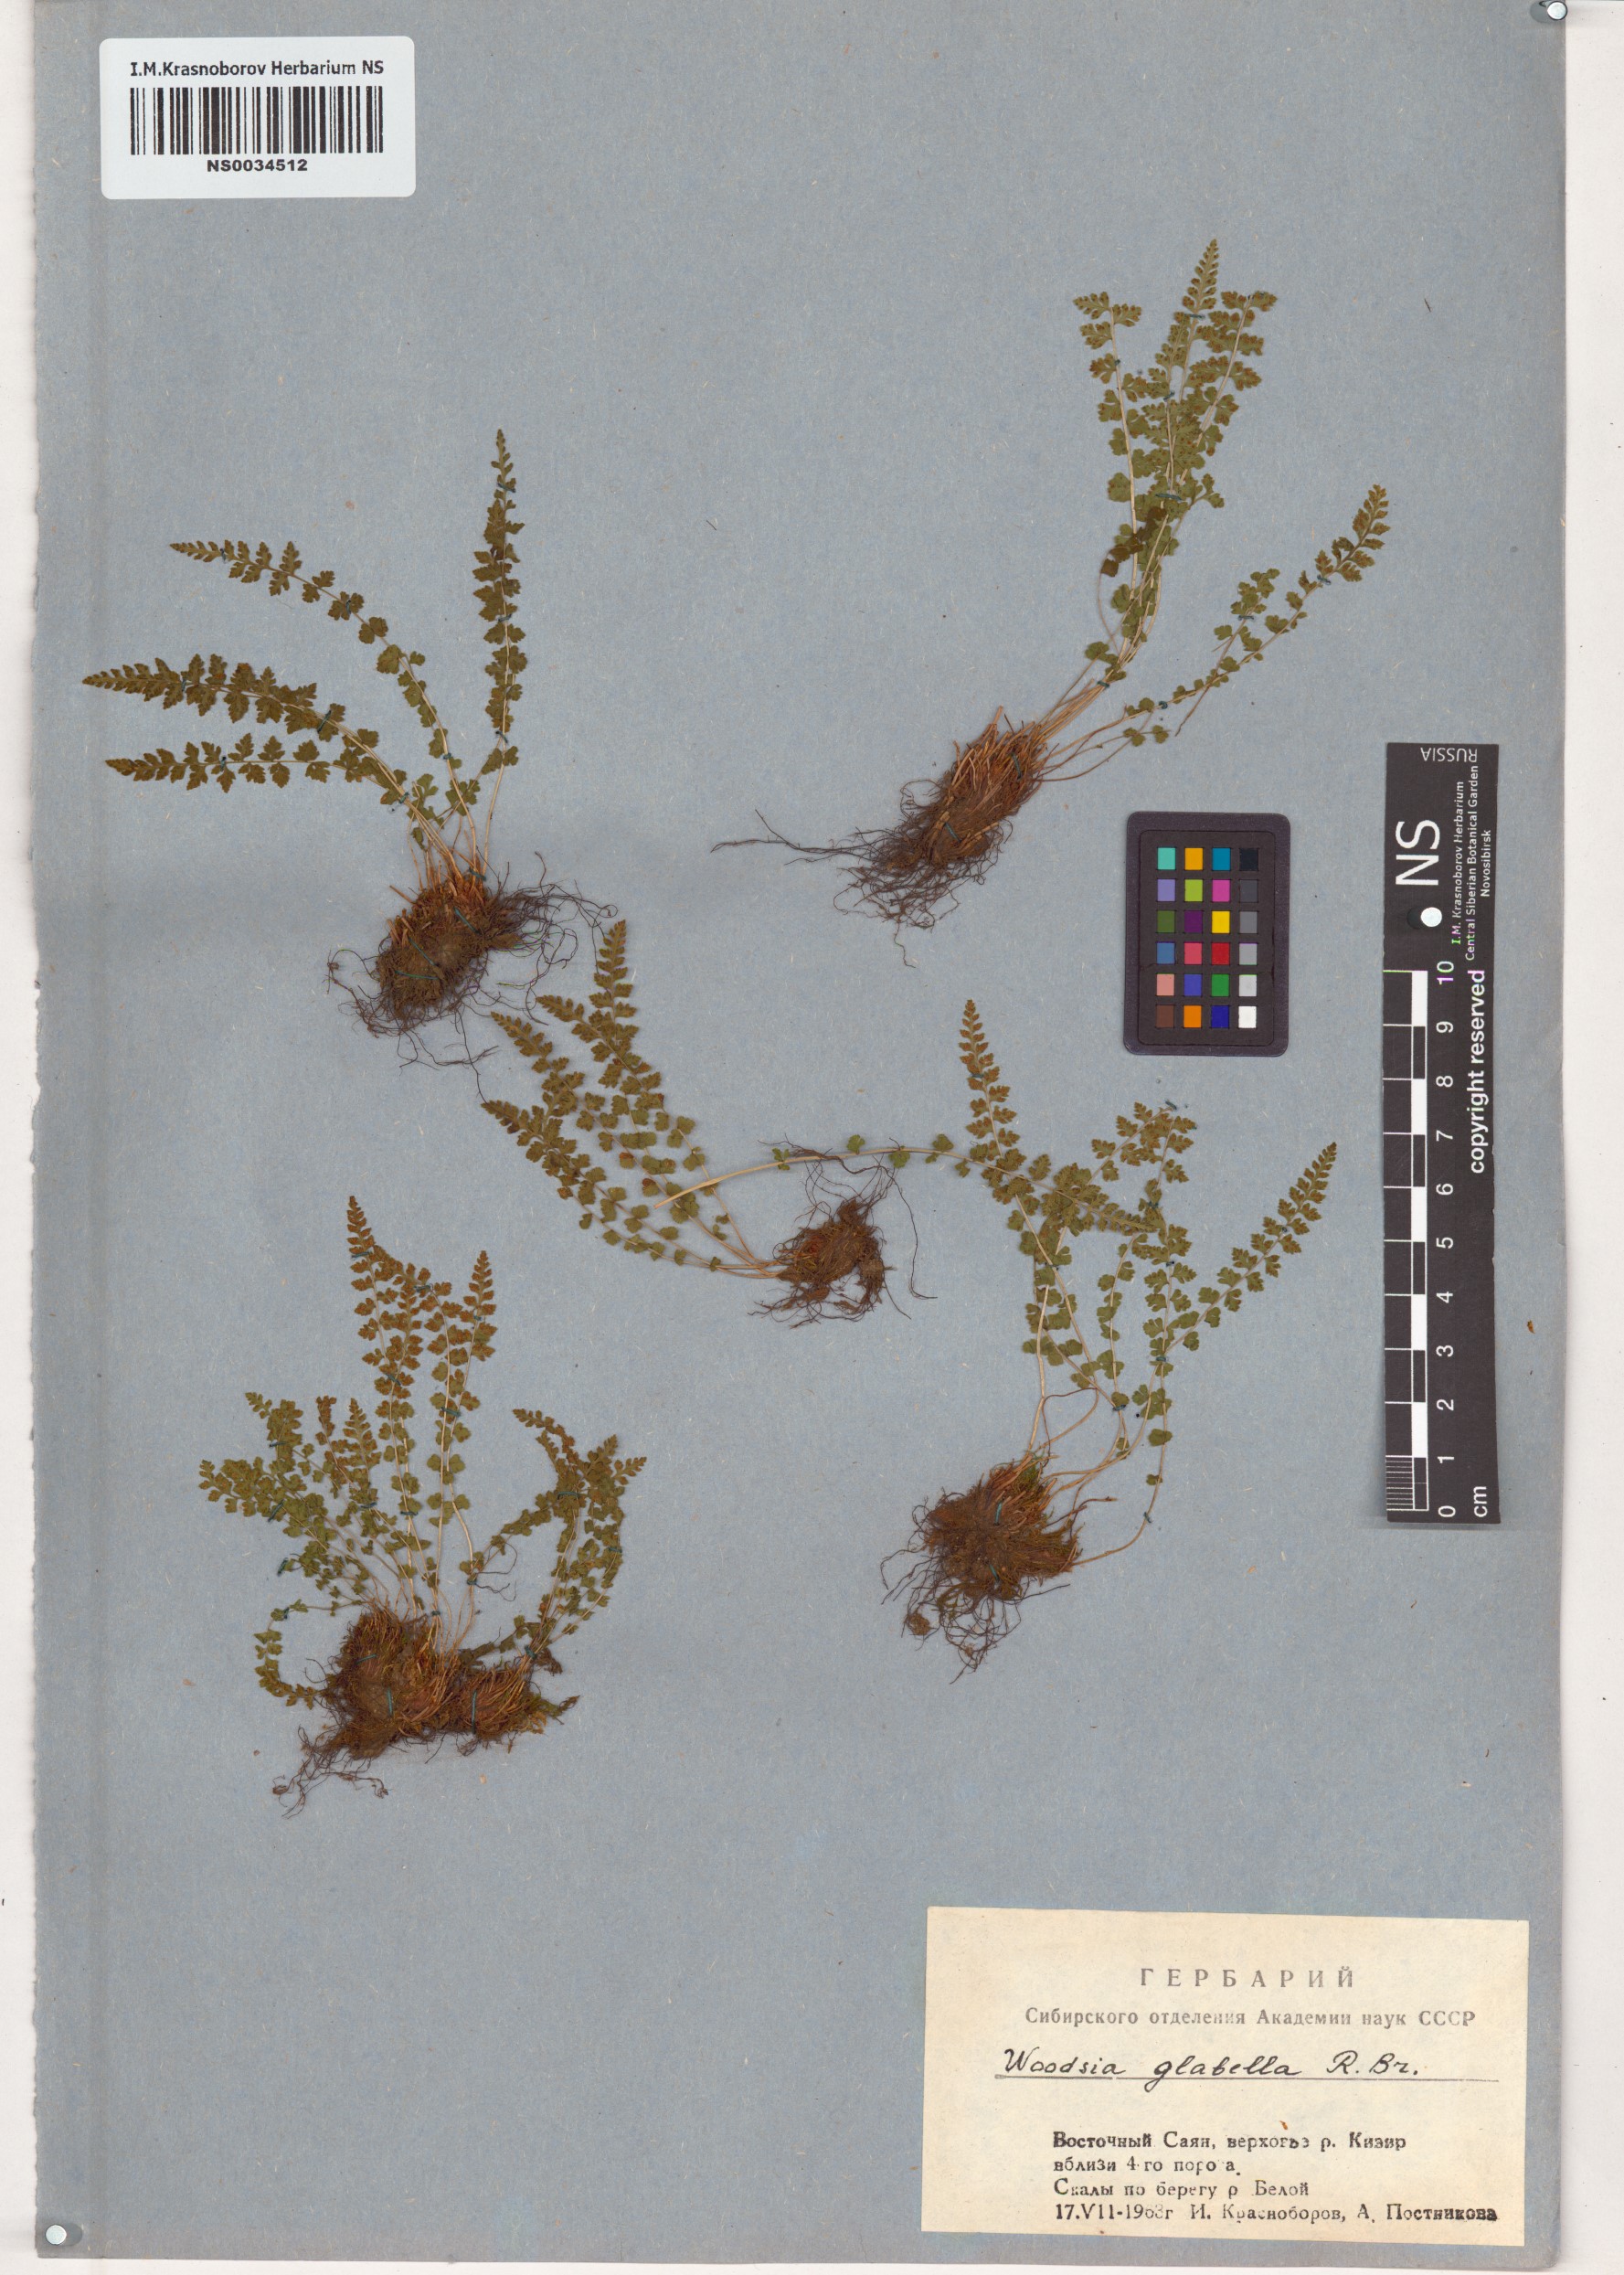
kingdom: Plantae
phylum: Tracheophyta
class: Polypodiopsida
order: Polypodiales
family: Woodsiaceae
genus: Woodsia
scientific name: Woodsia glabella
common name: Smooth woodsia
